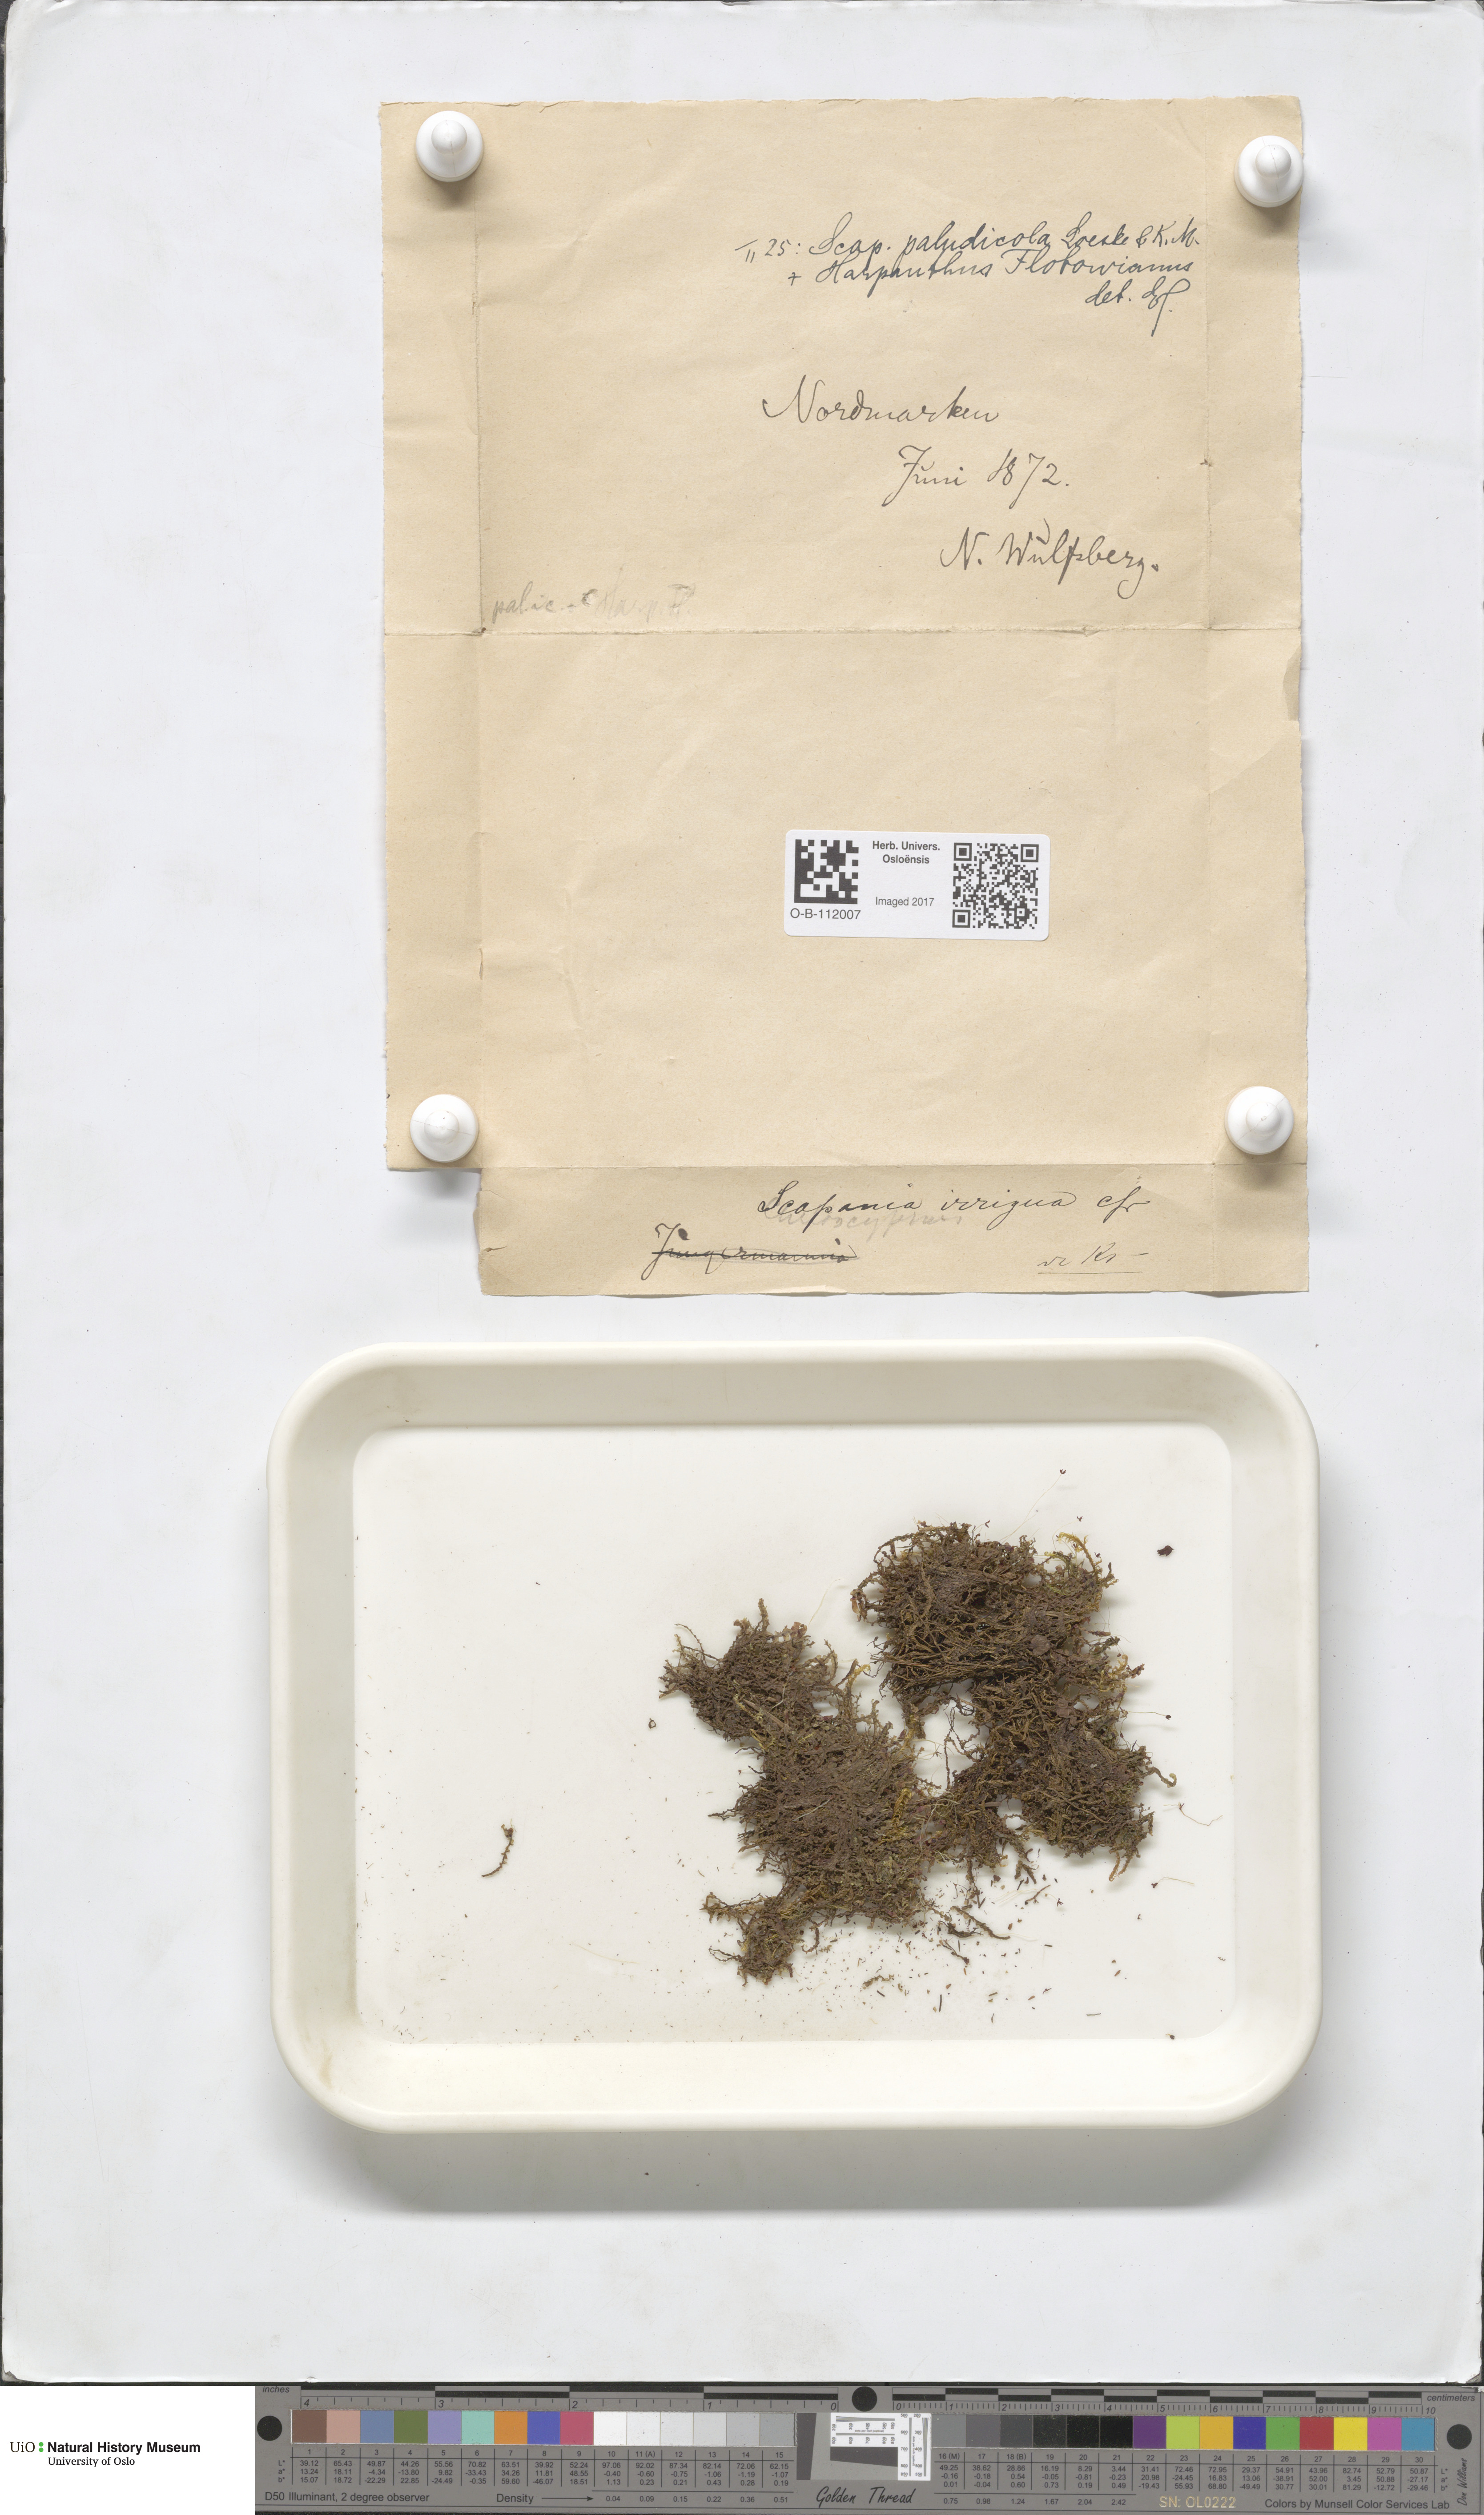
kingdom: Plantae
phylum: Marchantiophyta
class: Jungermanniopsida
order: Jungermanniales
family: Scapaniaceae
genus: Scapania
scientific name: Scapania paludicola
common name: Bog earwort
